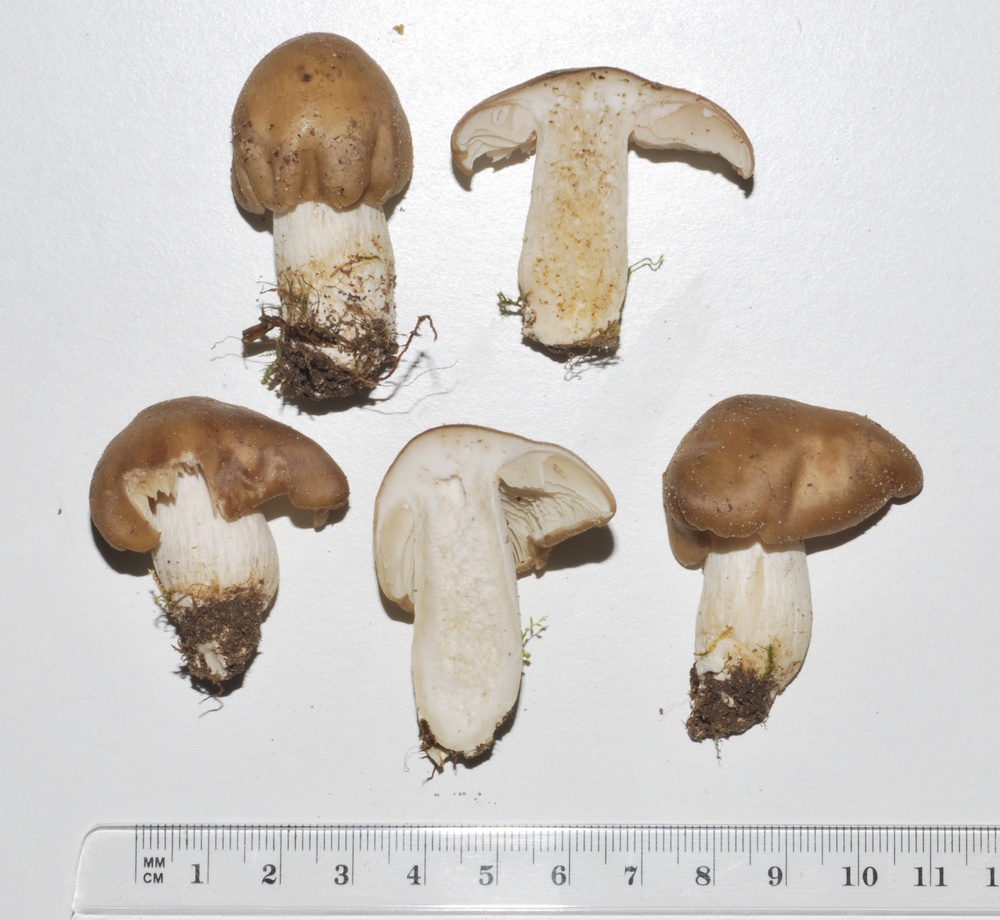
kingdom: Fungi
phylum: Basidiomycota
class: Agaricomycetes
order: Agaricales
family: Lyophyllaceae
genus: Lyophyllum
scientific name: Lyophyllum decastes
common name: røggrå gråblad
